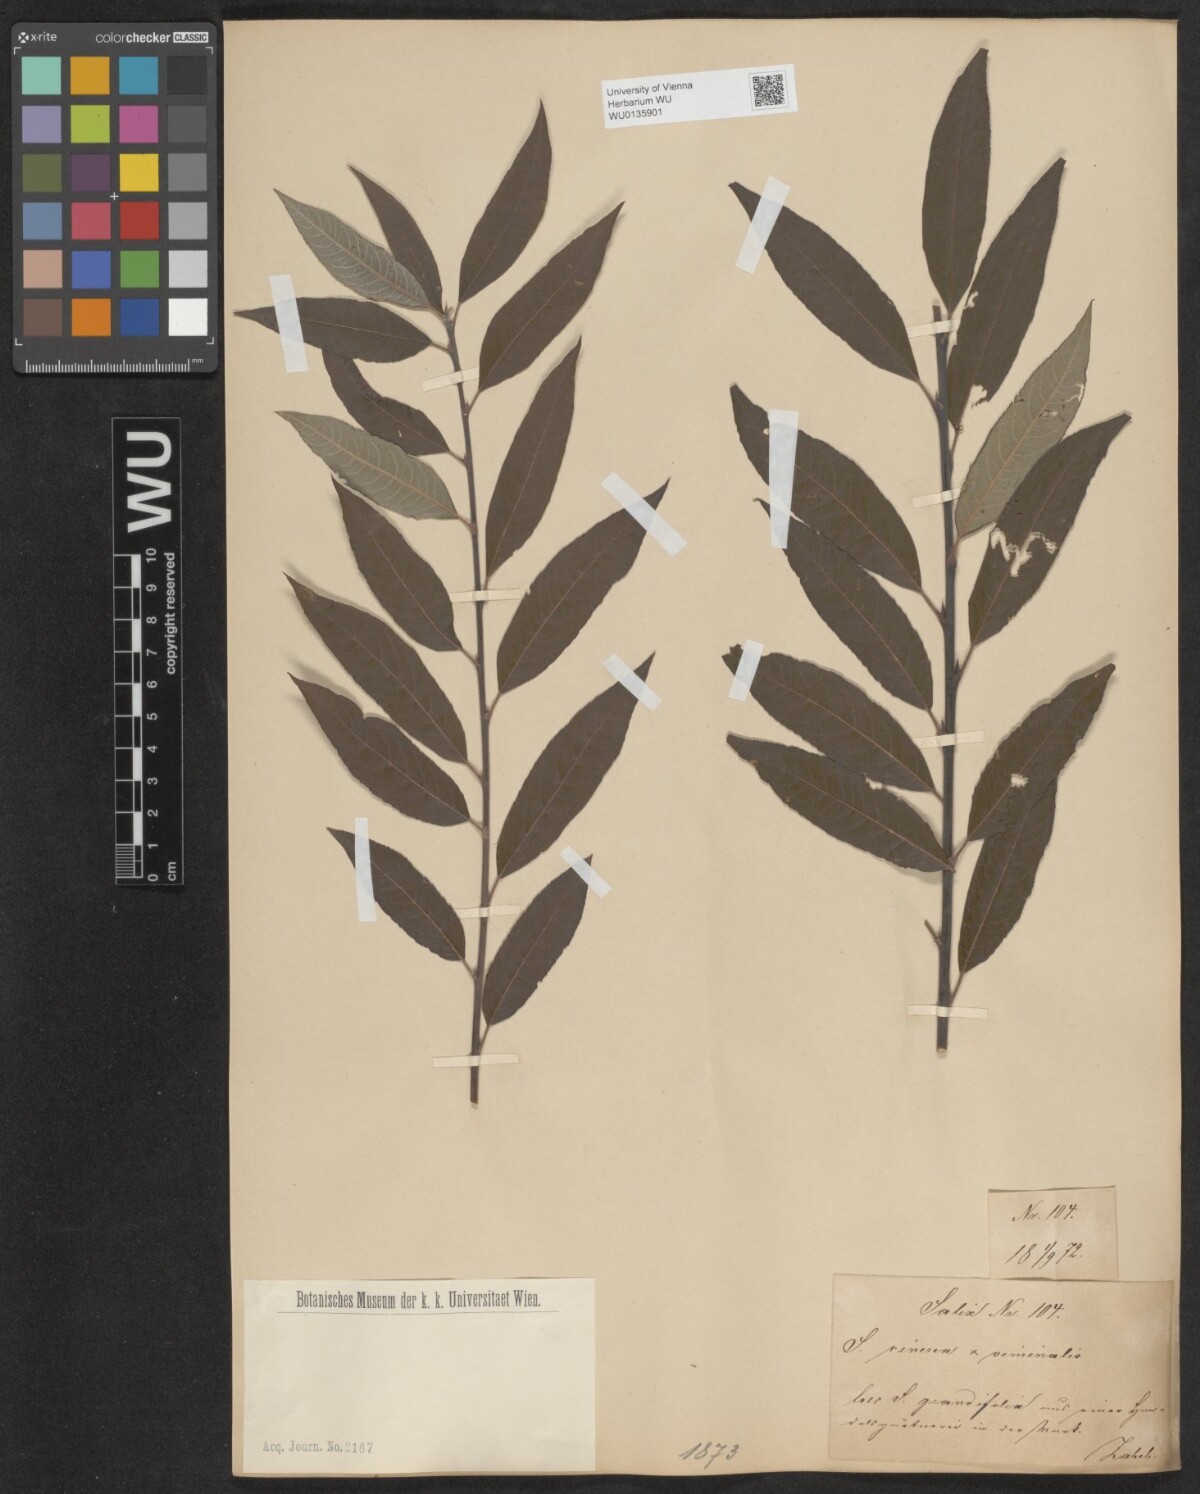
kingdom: Plantae
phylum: Tracheophyta
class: Magnoliopsida
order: Malpighiales
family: Salicaceae
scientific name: Salicaceae
